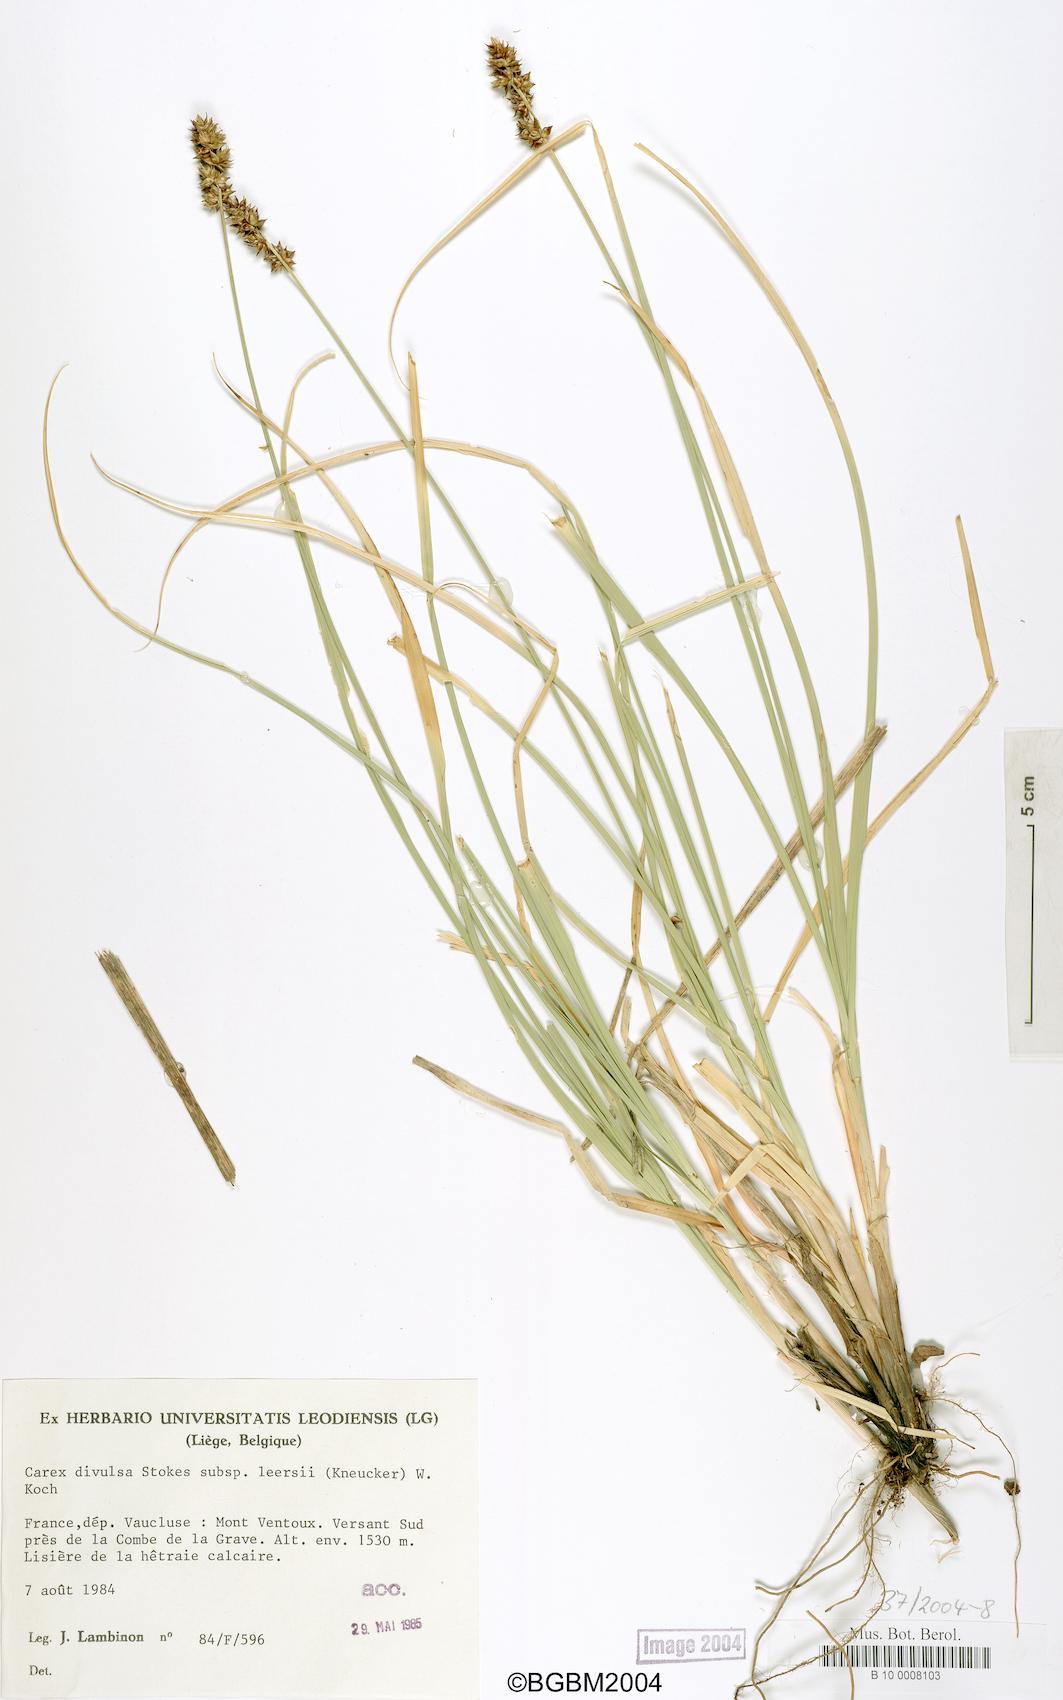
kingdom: Plantae
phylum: Tracheophyta
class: Liliopsida
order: Poales
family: Cyperaceae
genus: Carex
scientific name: Carex leersii
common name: Leers' sedge
